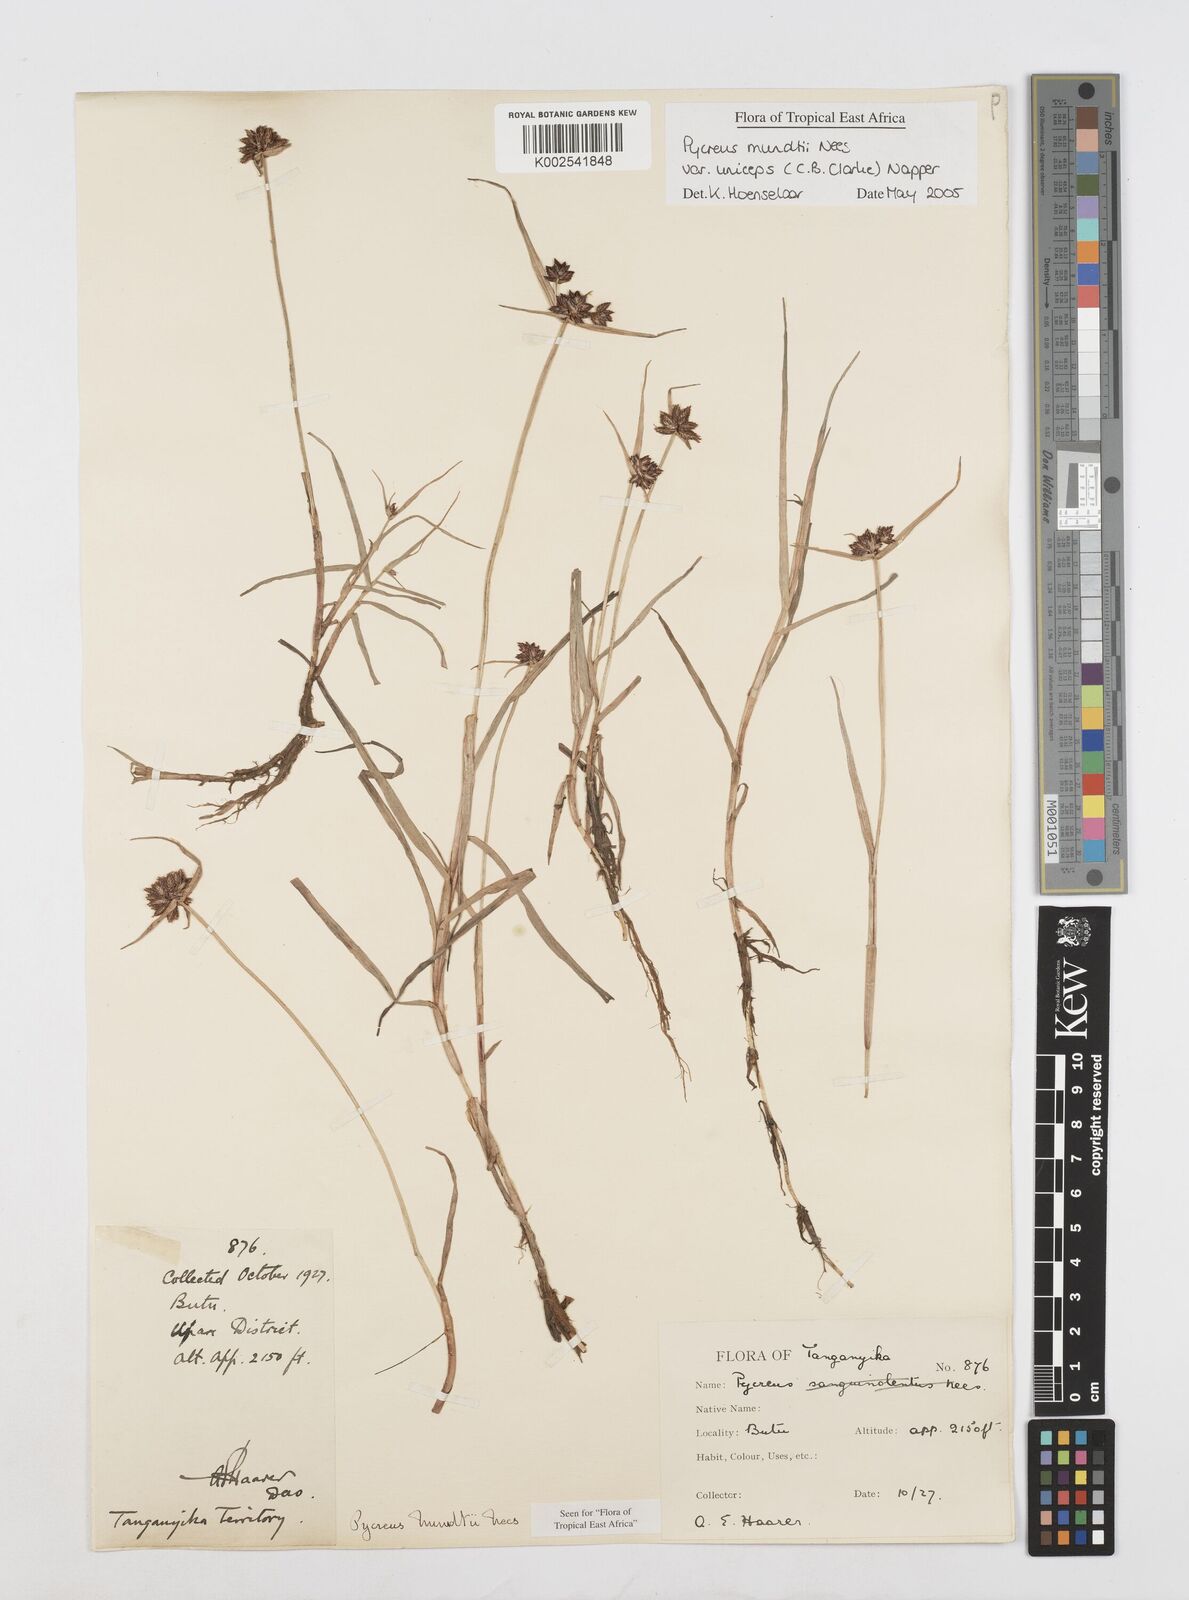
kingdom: Plantae
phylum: Tracheophyta
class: Liliopsida
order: Poales
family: Cyperaceae
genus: Cyperus
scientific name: Cyperus mundii
